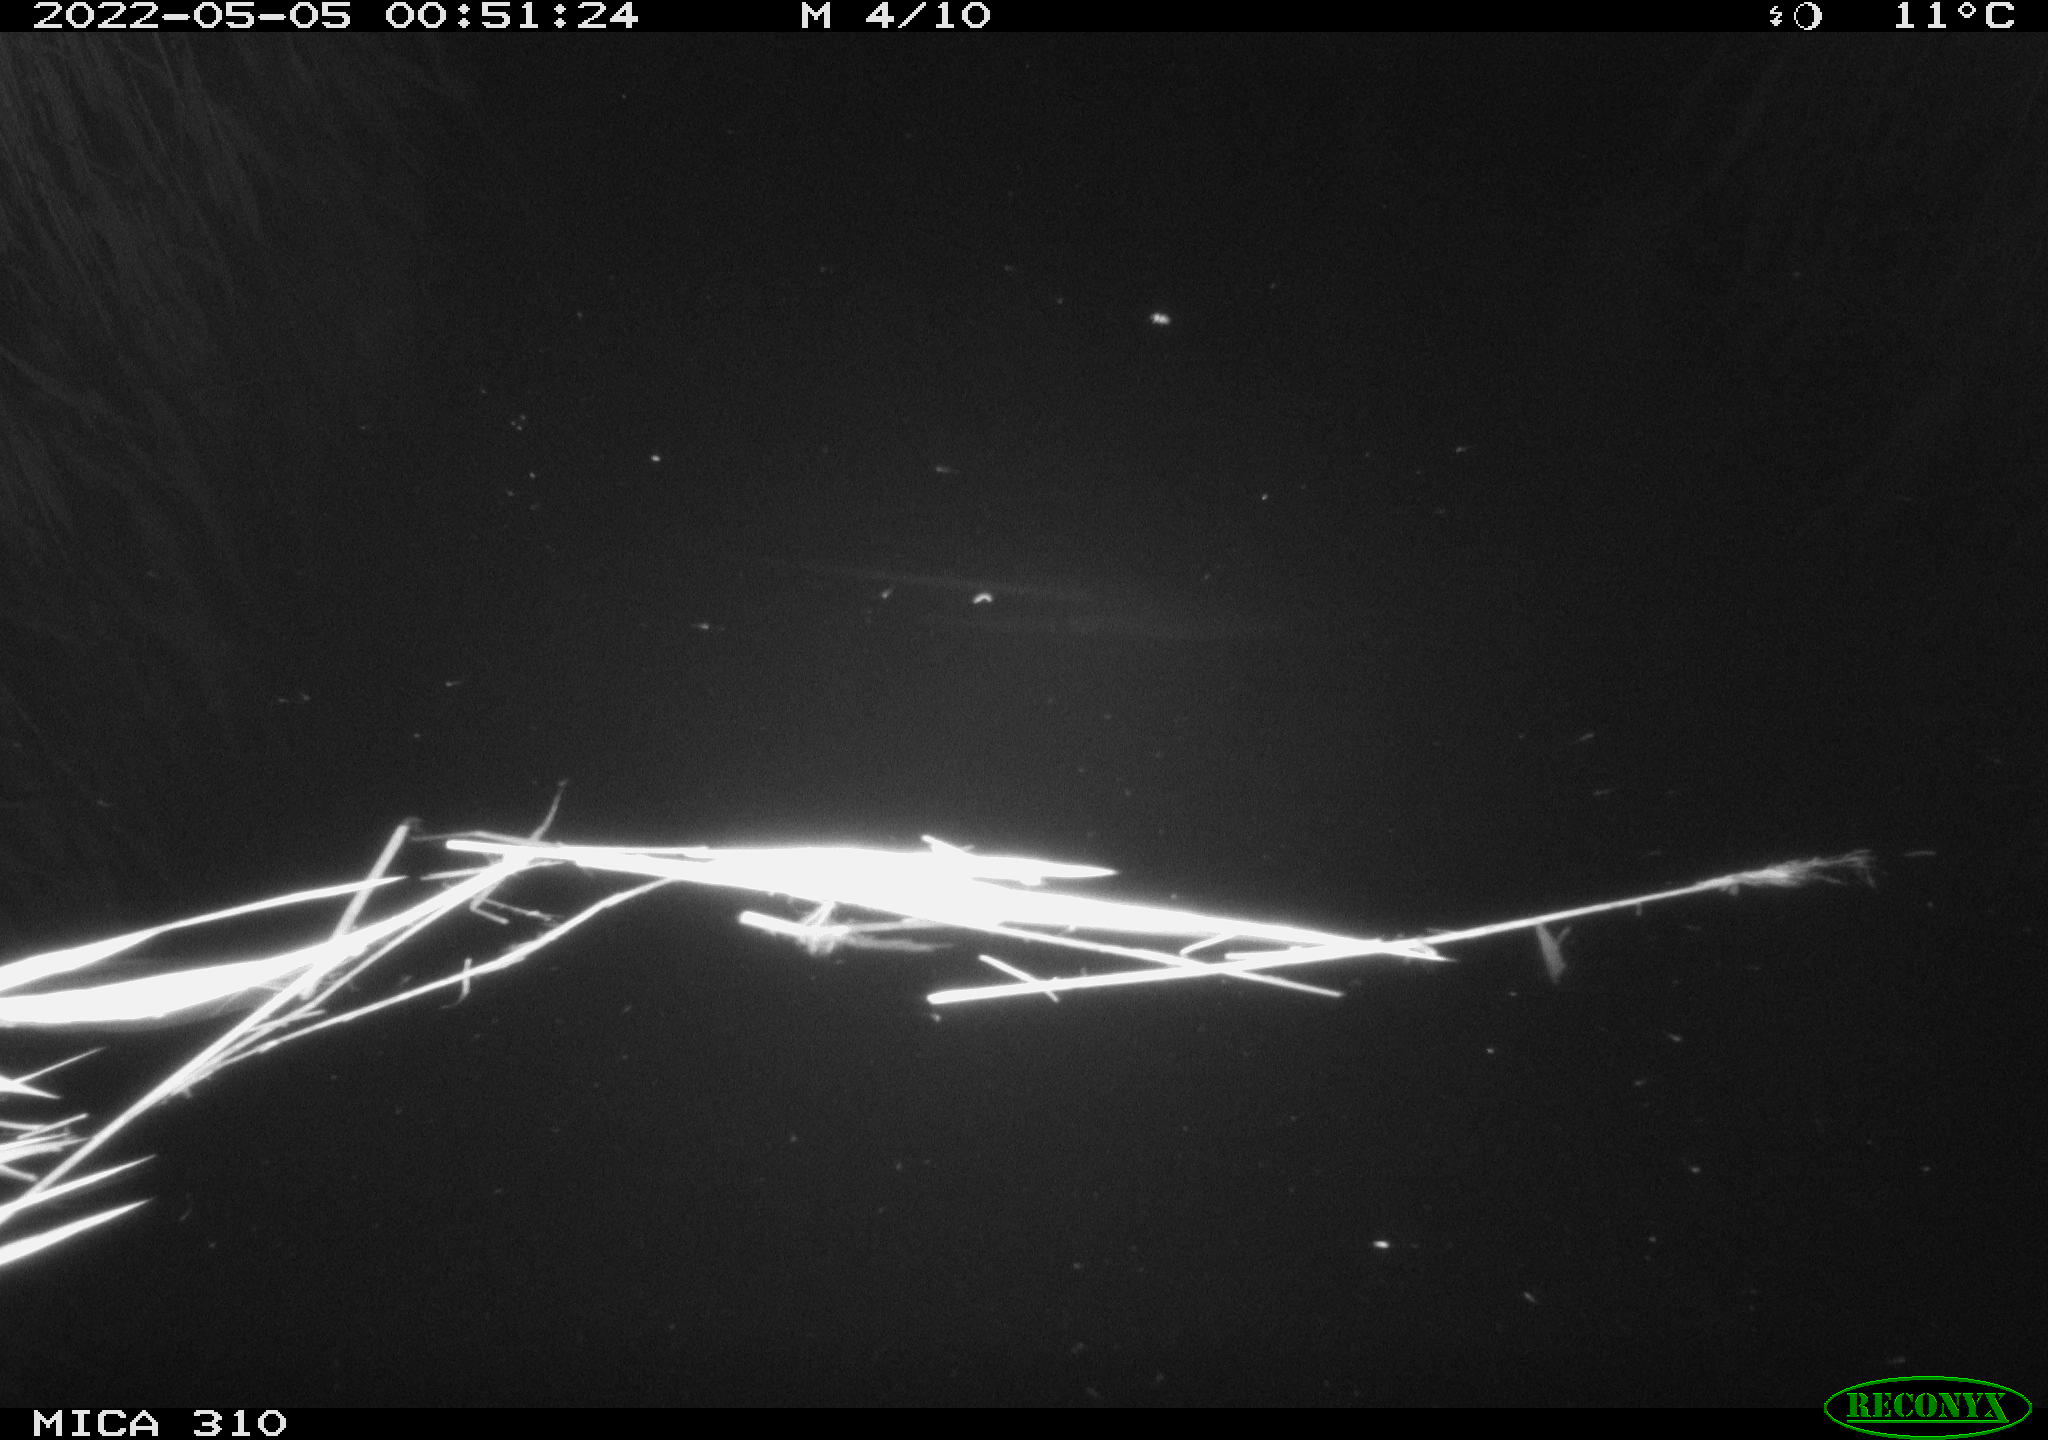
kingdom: Animalia
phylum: Chordata
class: Aves
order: Anseriformes
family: Anatidae
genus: Anas
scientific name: Anas platyrhynchos
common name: Mallard
